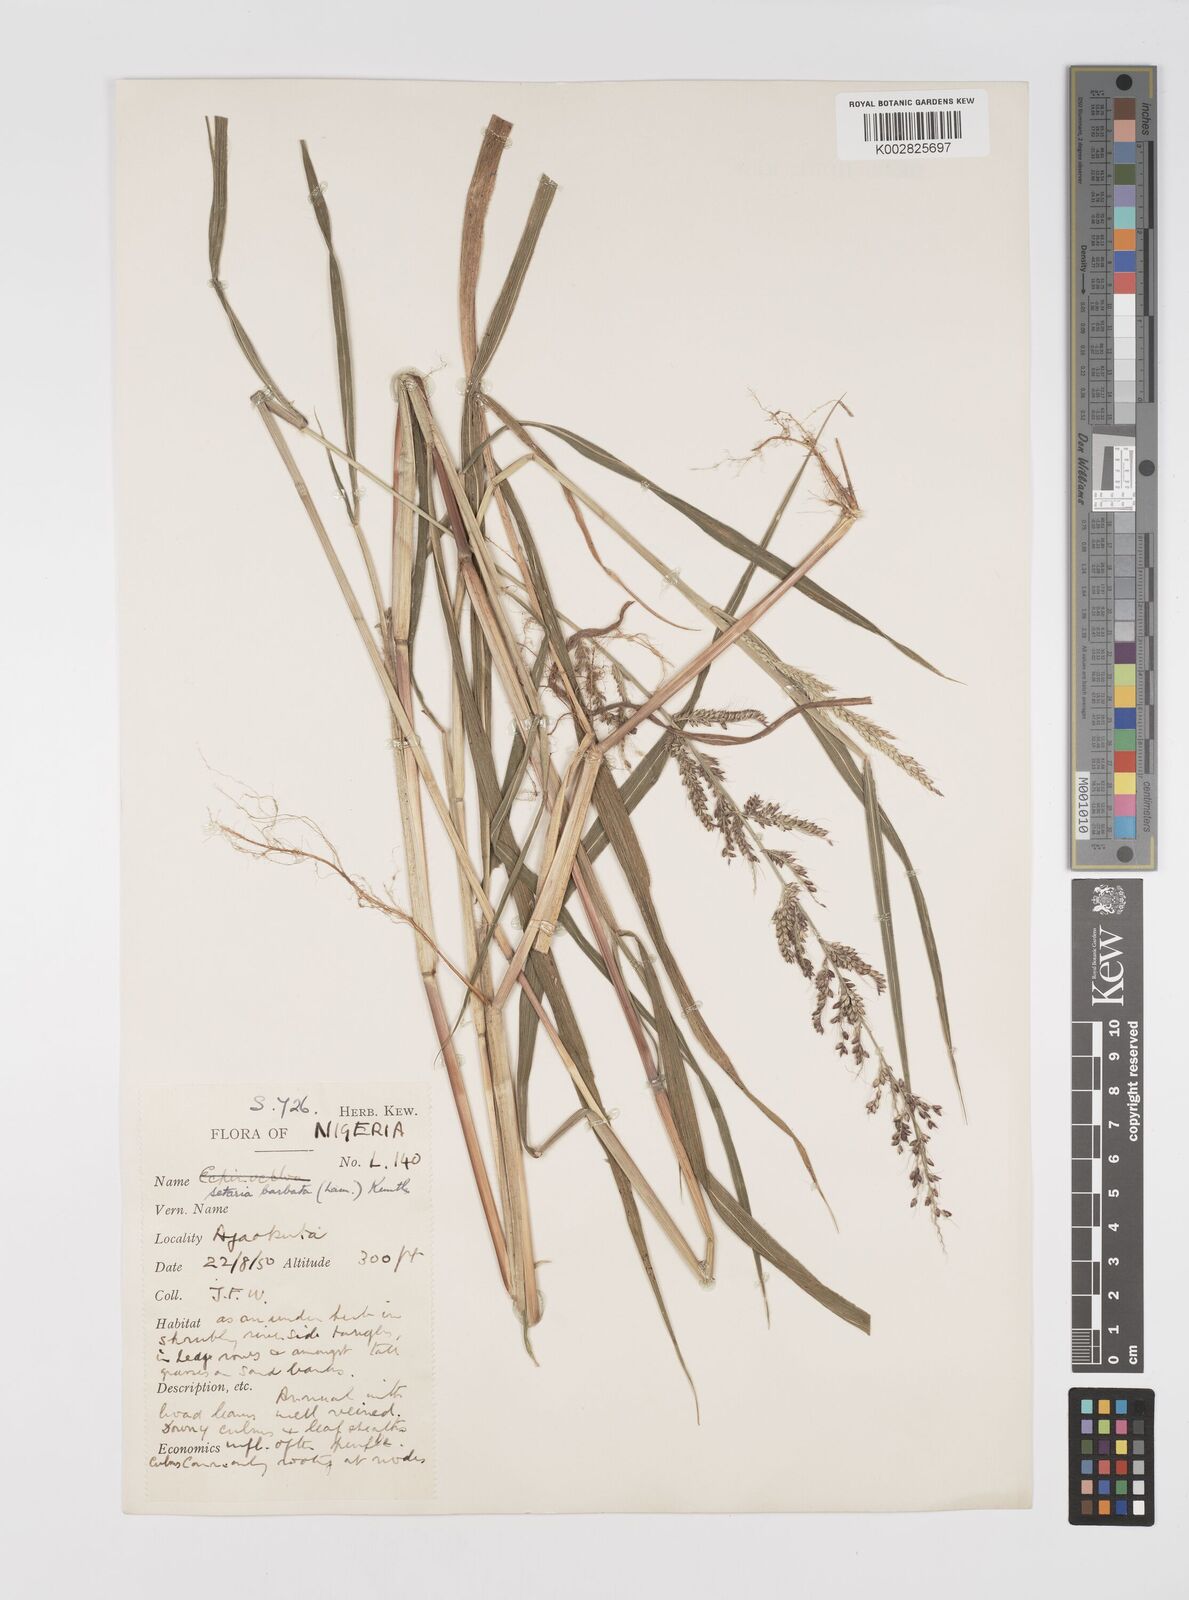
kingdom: Plantae
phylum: Tracheophyta
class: Liliopsida
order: Poales
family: Poaceae
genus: Setaria
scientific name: Setaria barbata
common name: East indian bristlegrass
